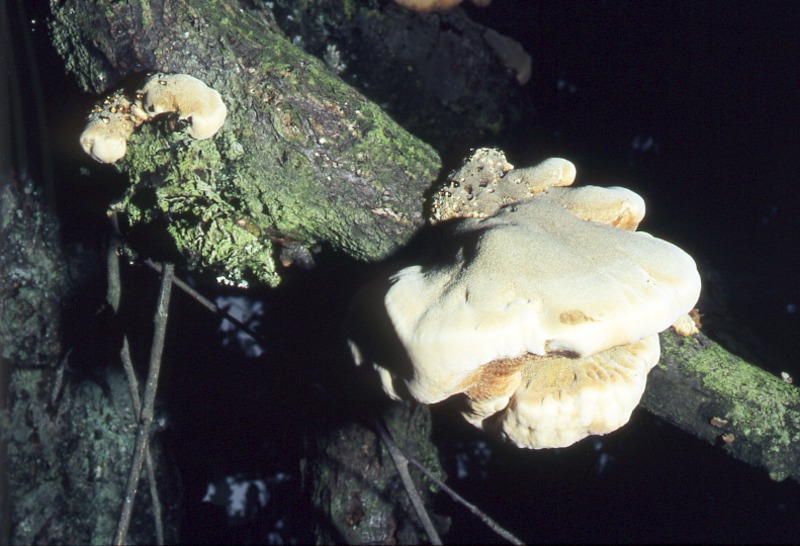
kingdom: Plantae
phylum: Tracheophyta
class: Magnoliopsida
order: Rosales
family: Rosaceae
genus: Sorbus
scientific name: Sorbus
